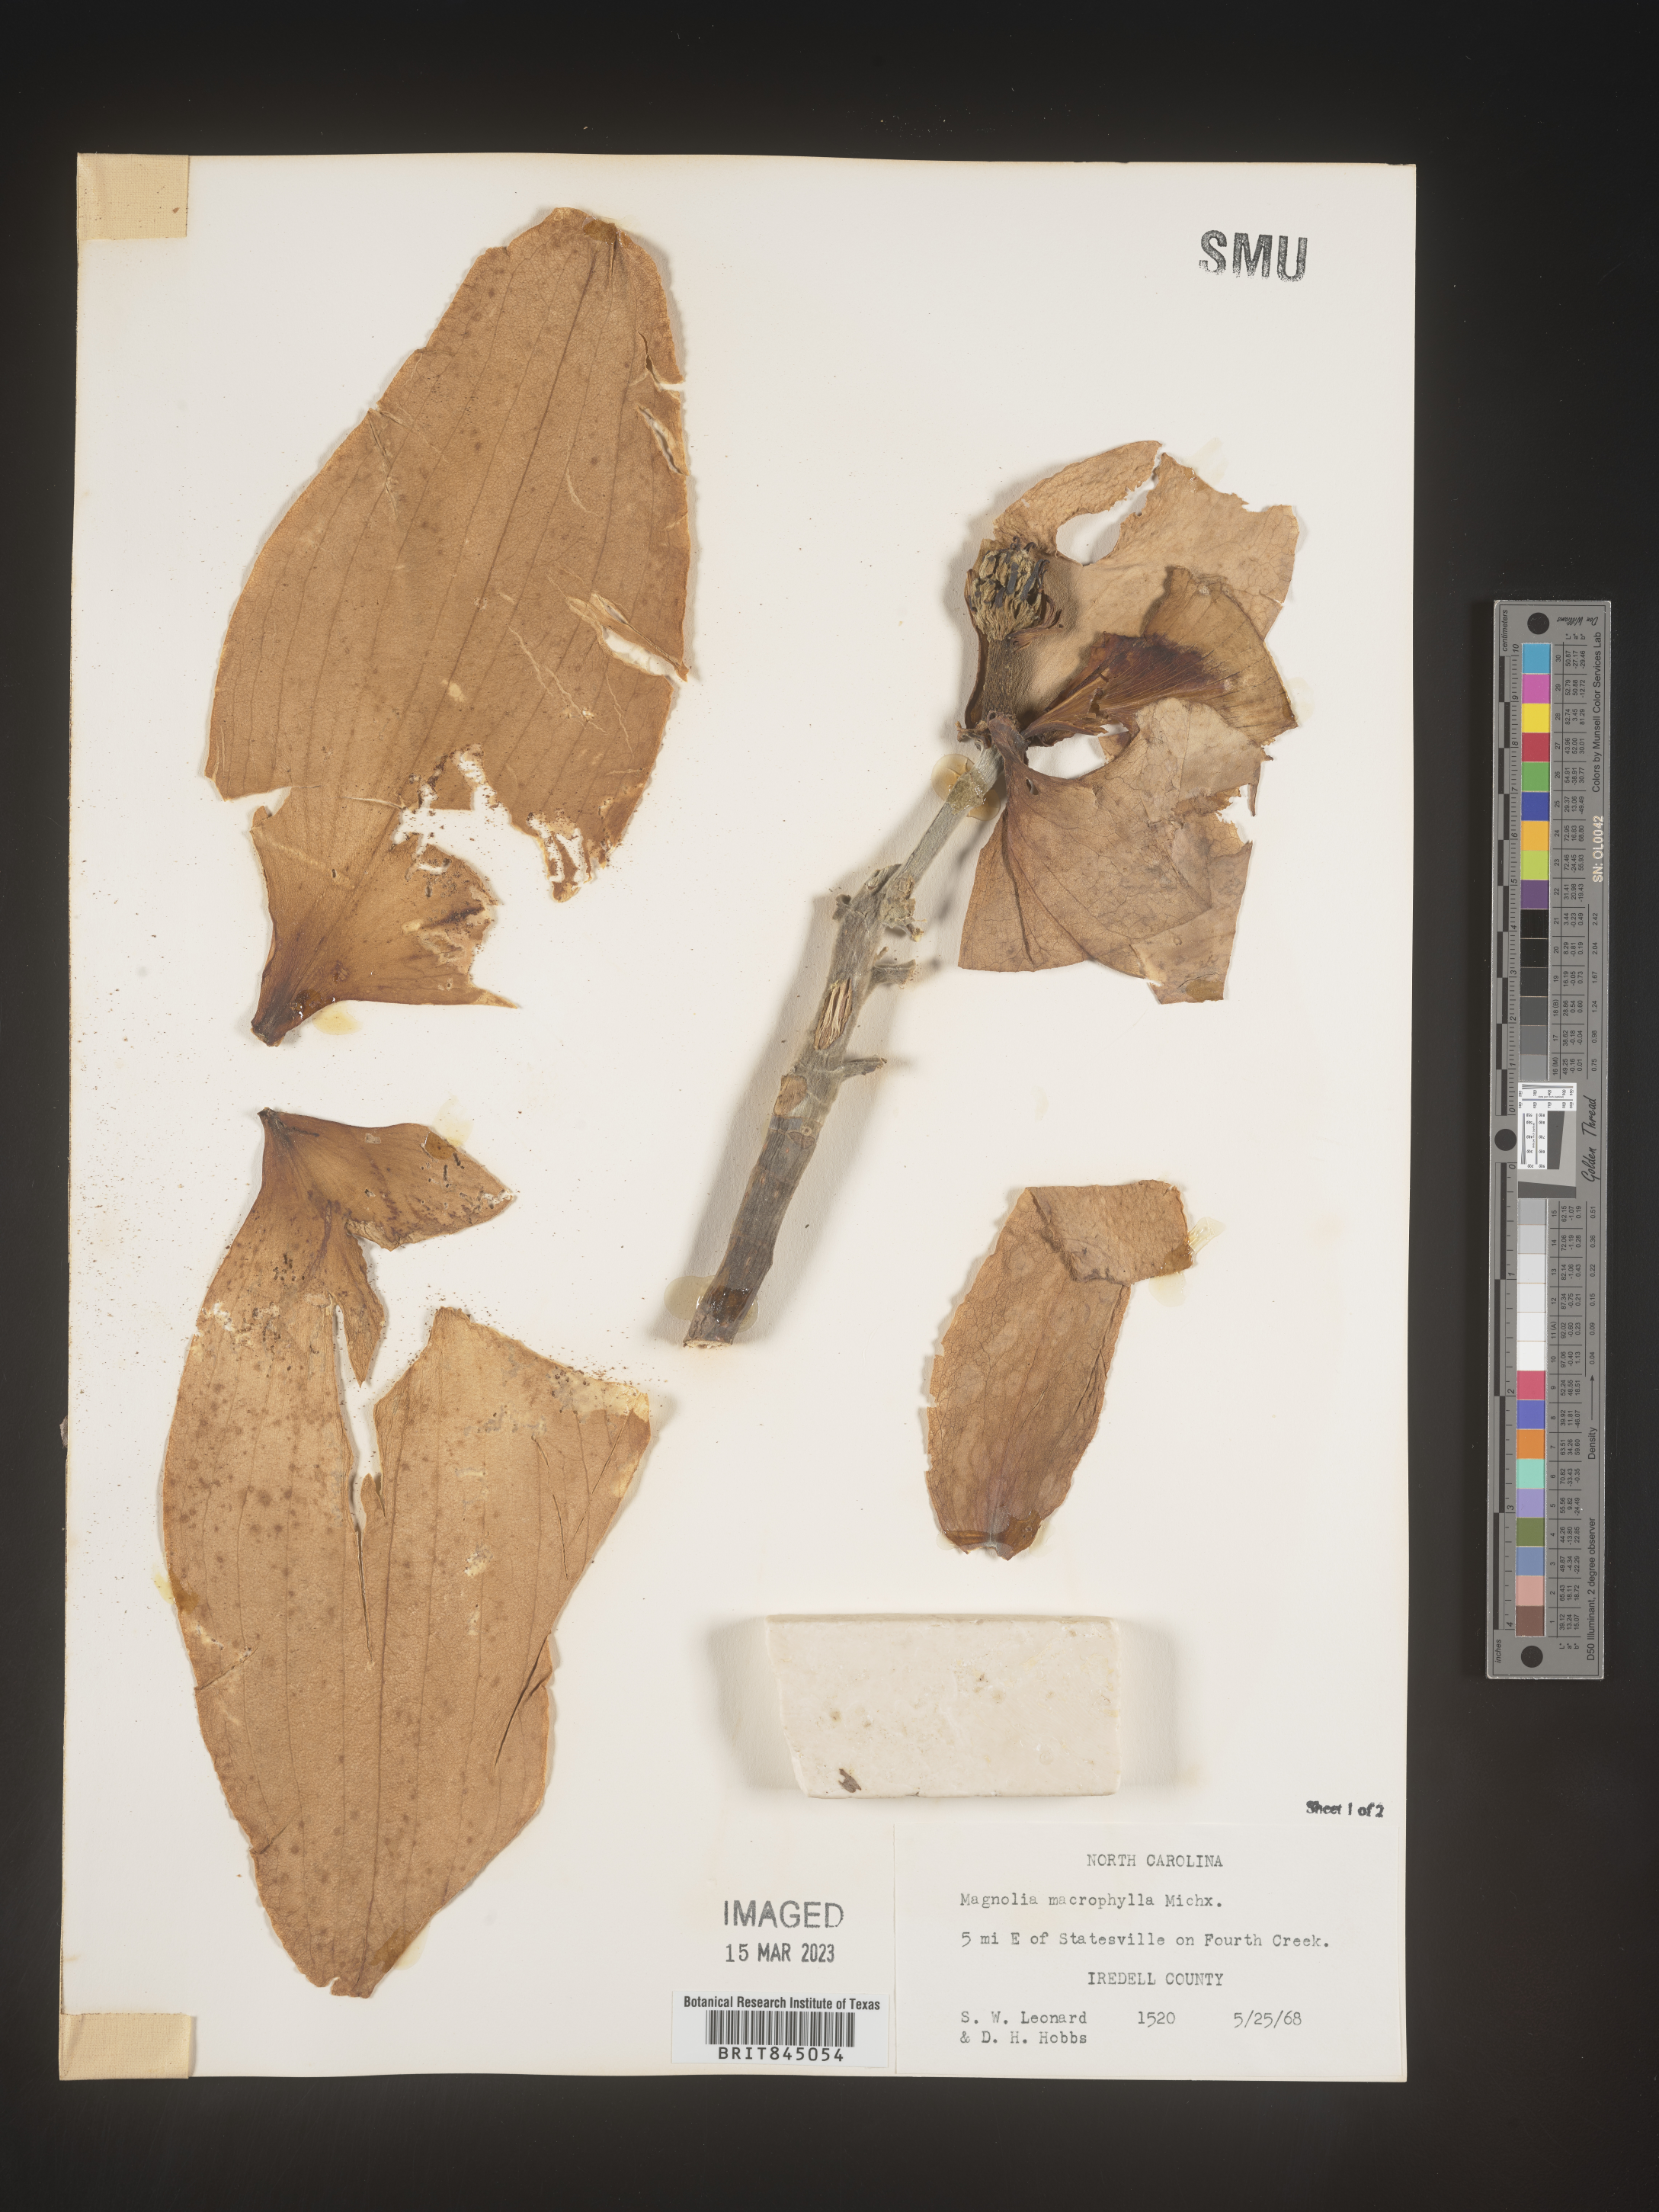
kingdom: Plantae
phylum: Tracheophyta
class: Magnoliopsida
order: Magnoliales
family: Magnoliaceae
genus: Magnolia
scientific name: Magnolia macrophylla
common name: Big-leaf magnolia
